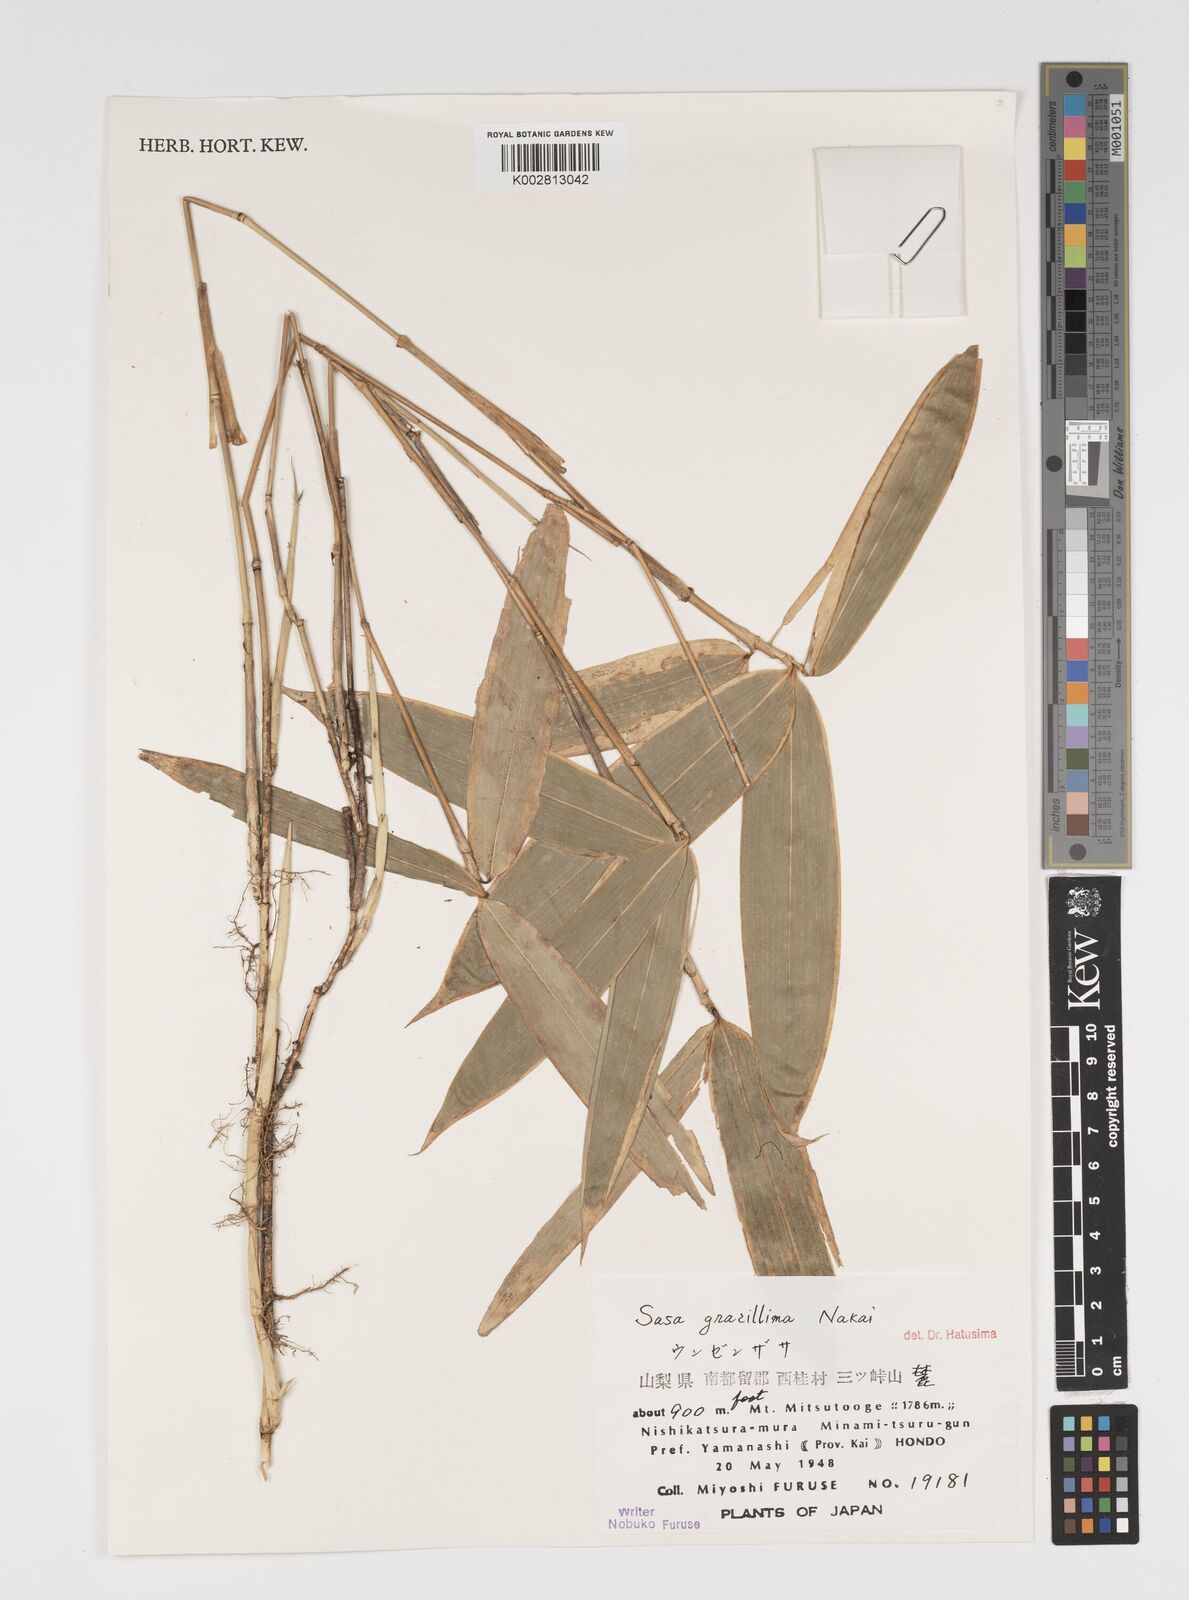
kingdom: Plantae
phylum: Tracheophyta
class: Liliopsida
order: Poales
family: Poaceae
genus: Sasa
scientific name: Sasa gracillima
